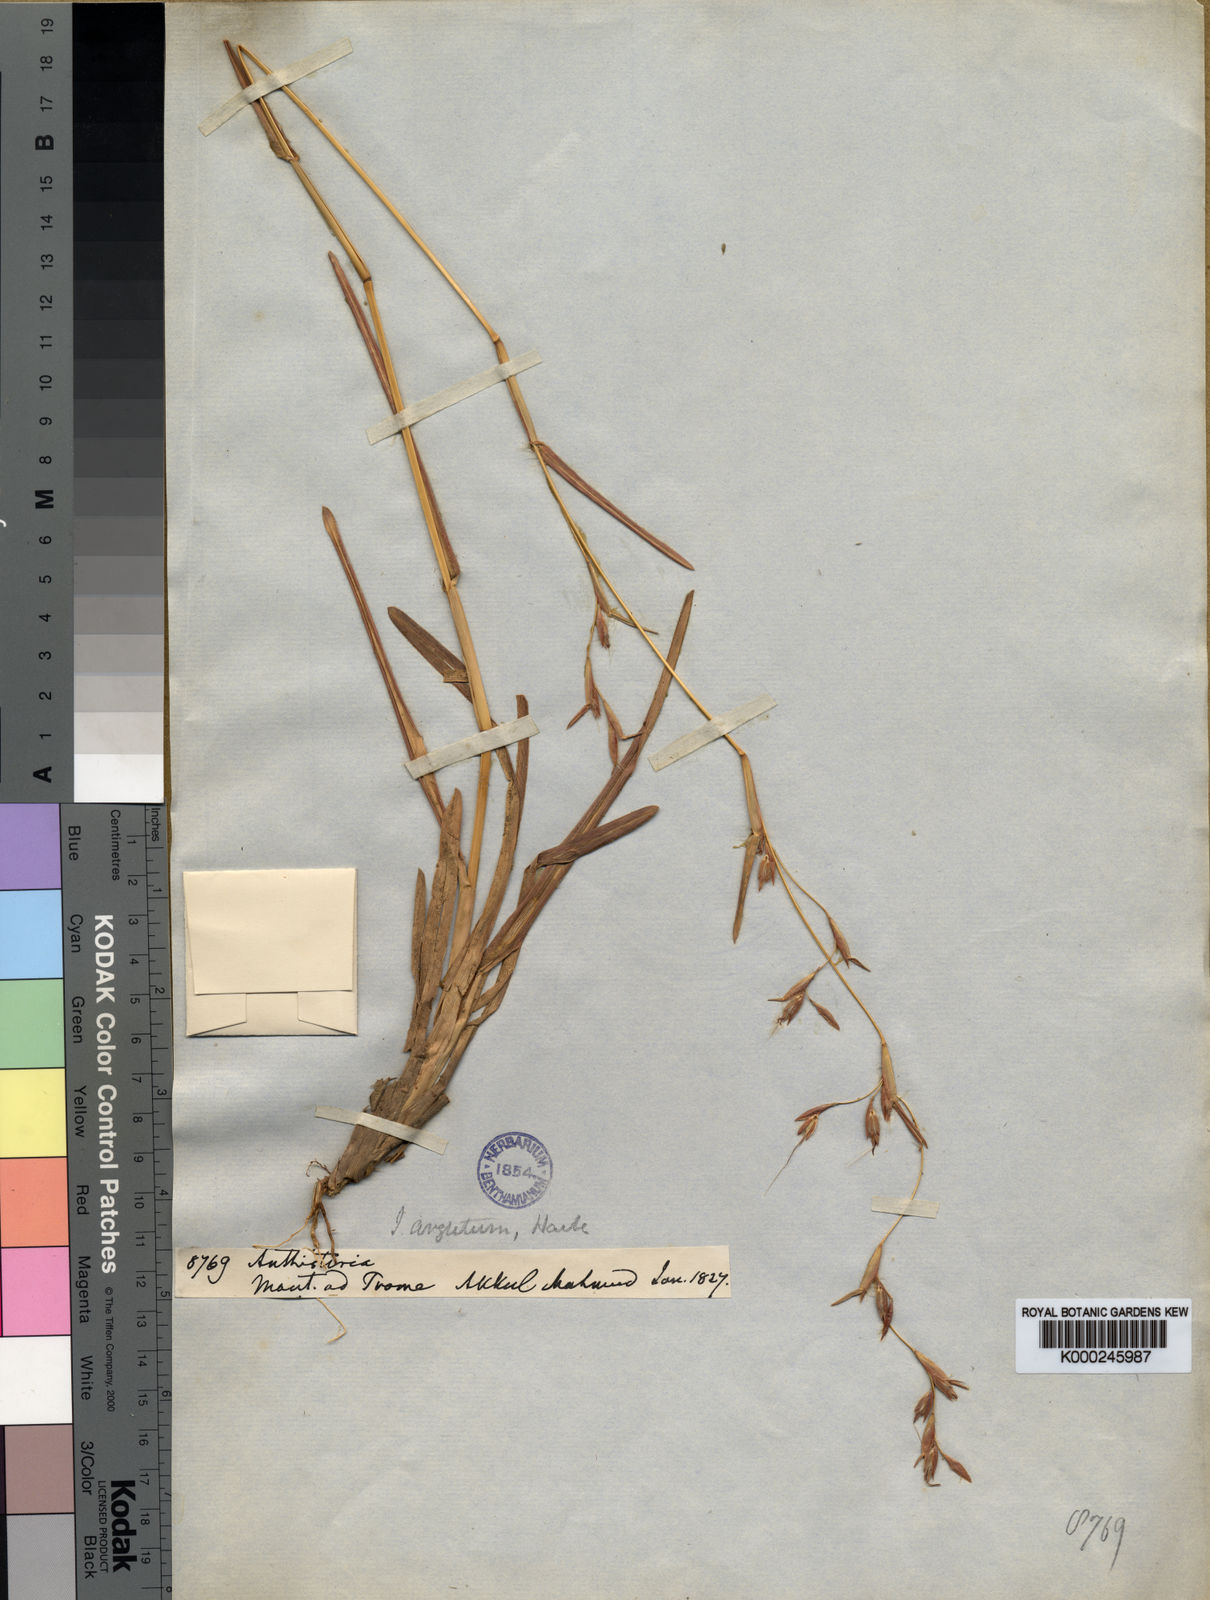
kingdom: Plantae
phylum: Tracheophyta
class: Liliopsida
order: Poales
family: Poaceae
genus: Iseilema
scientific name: Iseilema argutum
